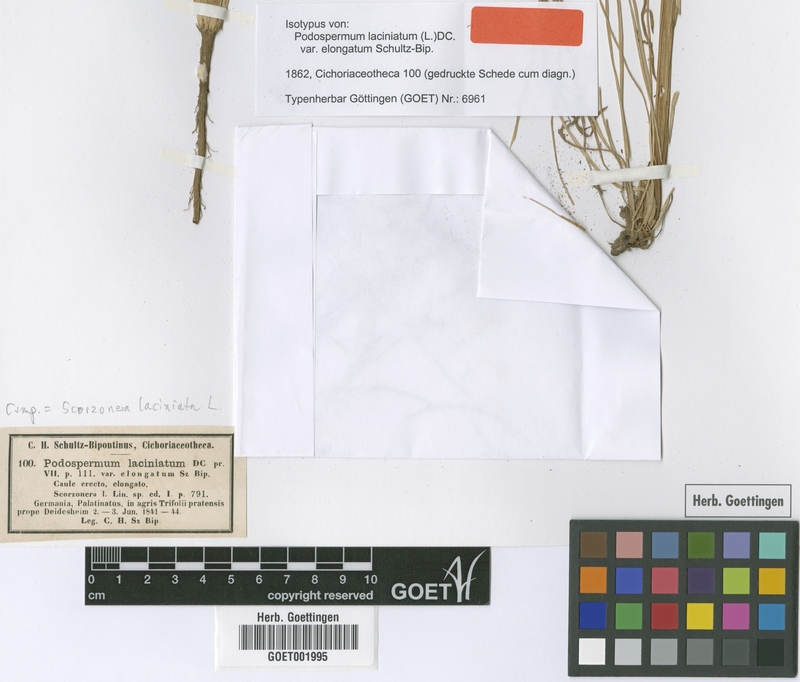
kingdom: Plantae
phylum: Tracheophyta
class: Magnoliopsida
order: Asterales
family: Asteraceae
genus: Scorzonera
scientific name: Scorzonera laciniata
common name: Cutleaf vipergrass
